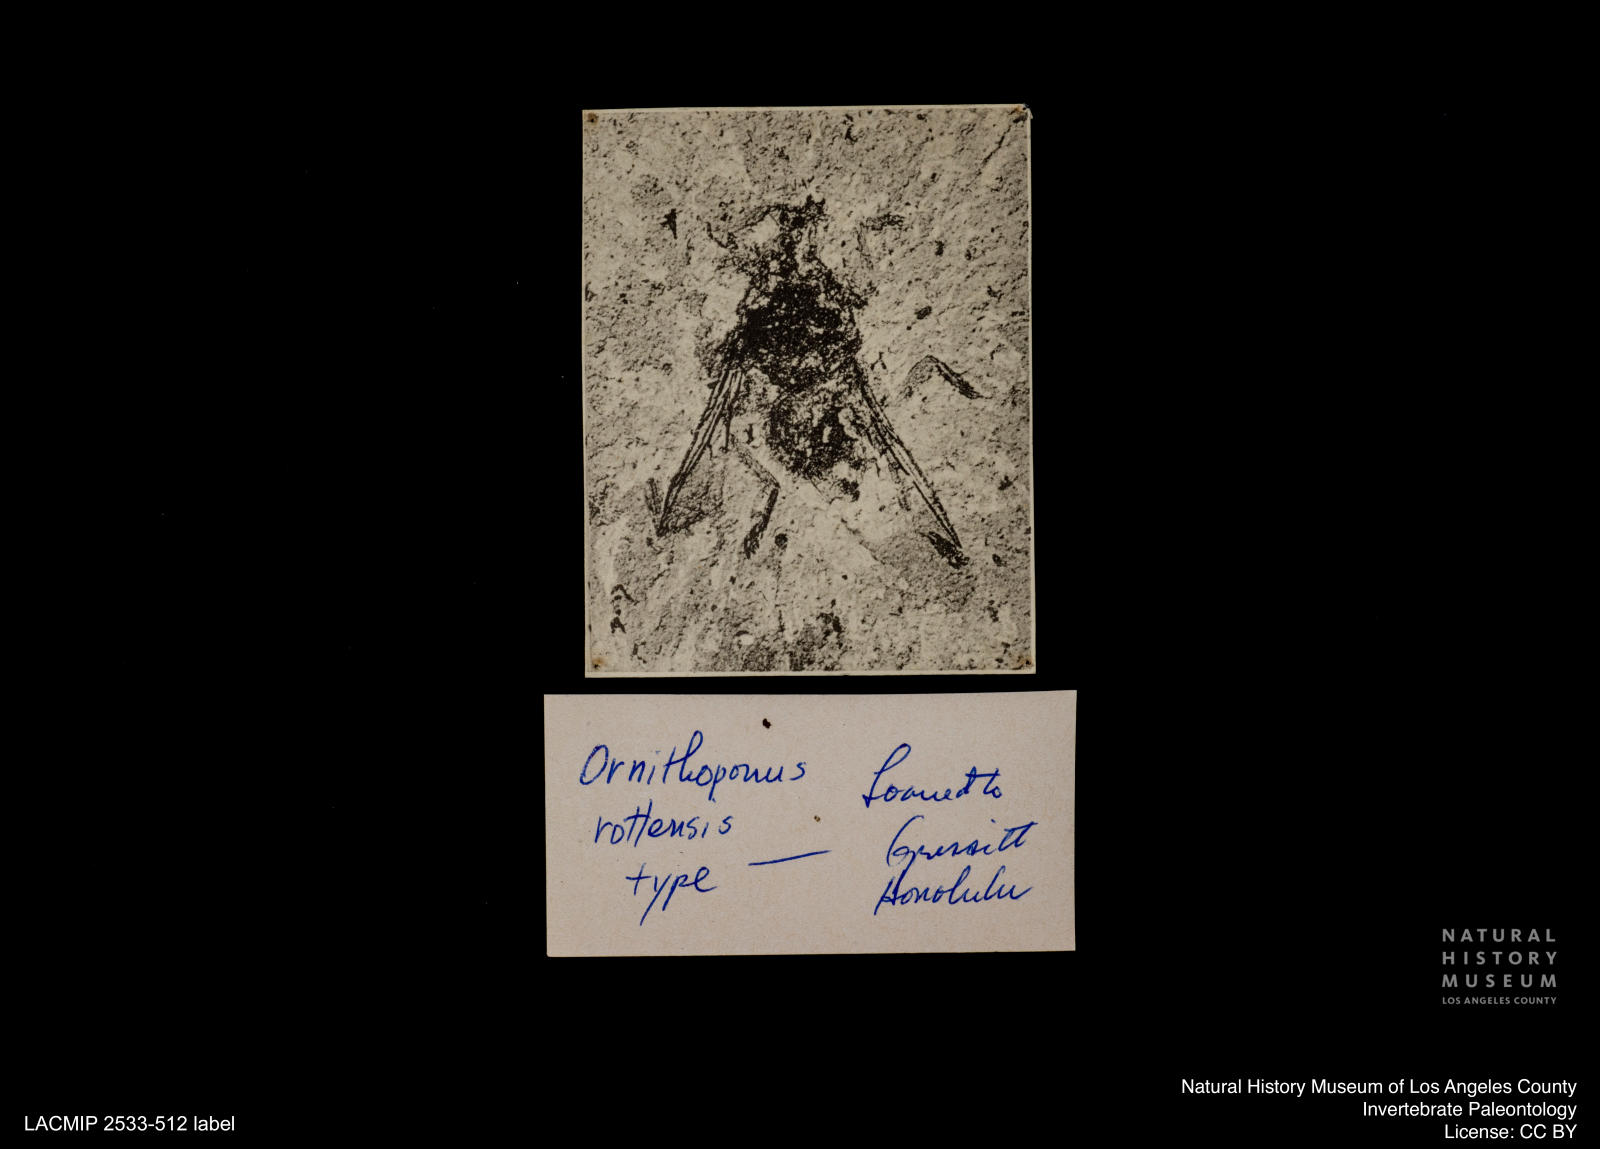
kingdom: Animalia
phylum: Arthropoda
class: Insecta
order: Diptera
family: Hippoboscidae
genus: Ornithomya
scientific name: Ornithomya rottensis
